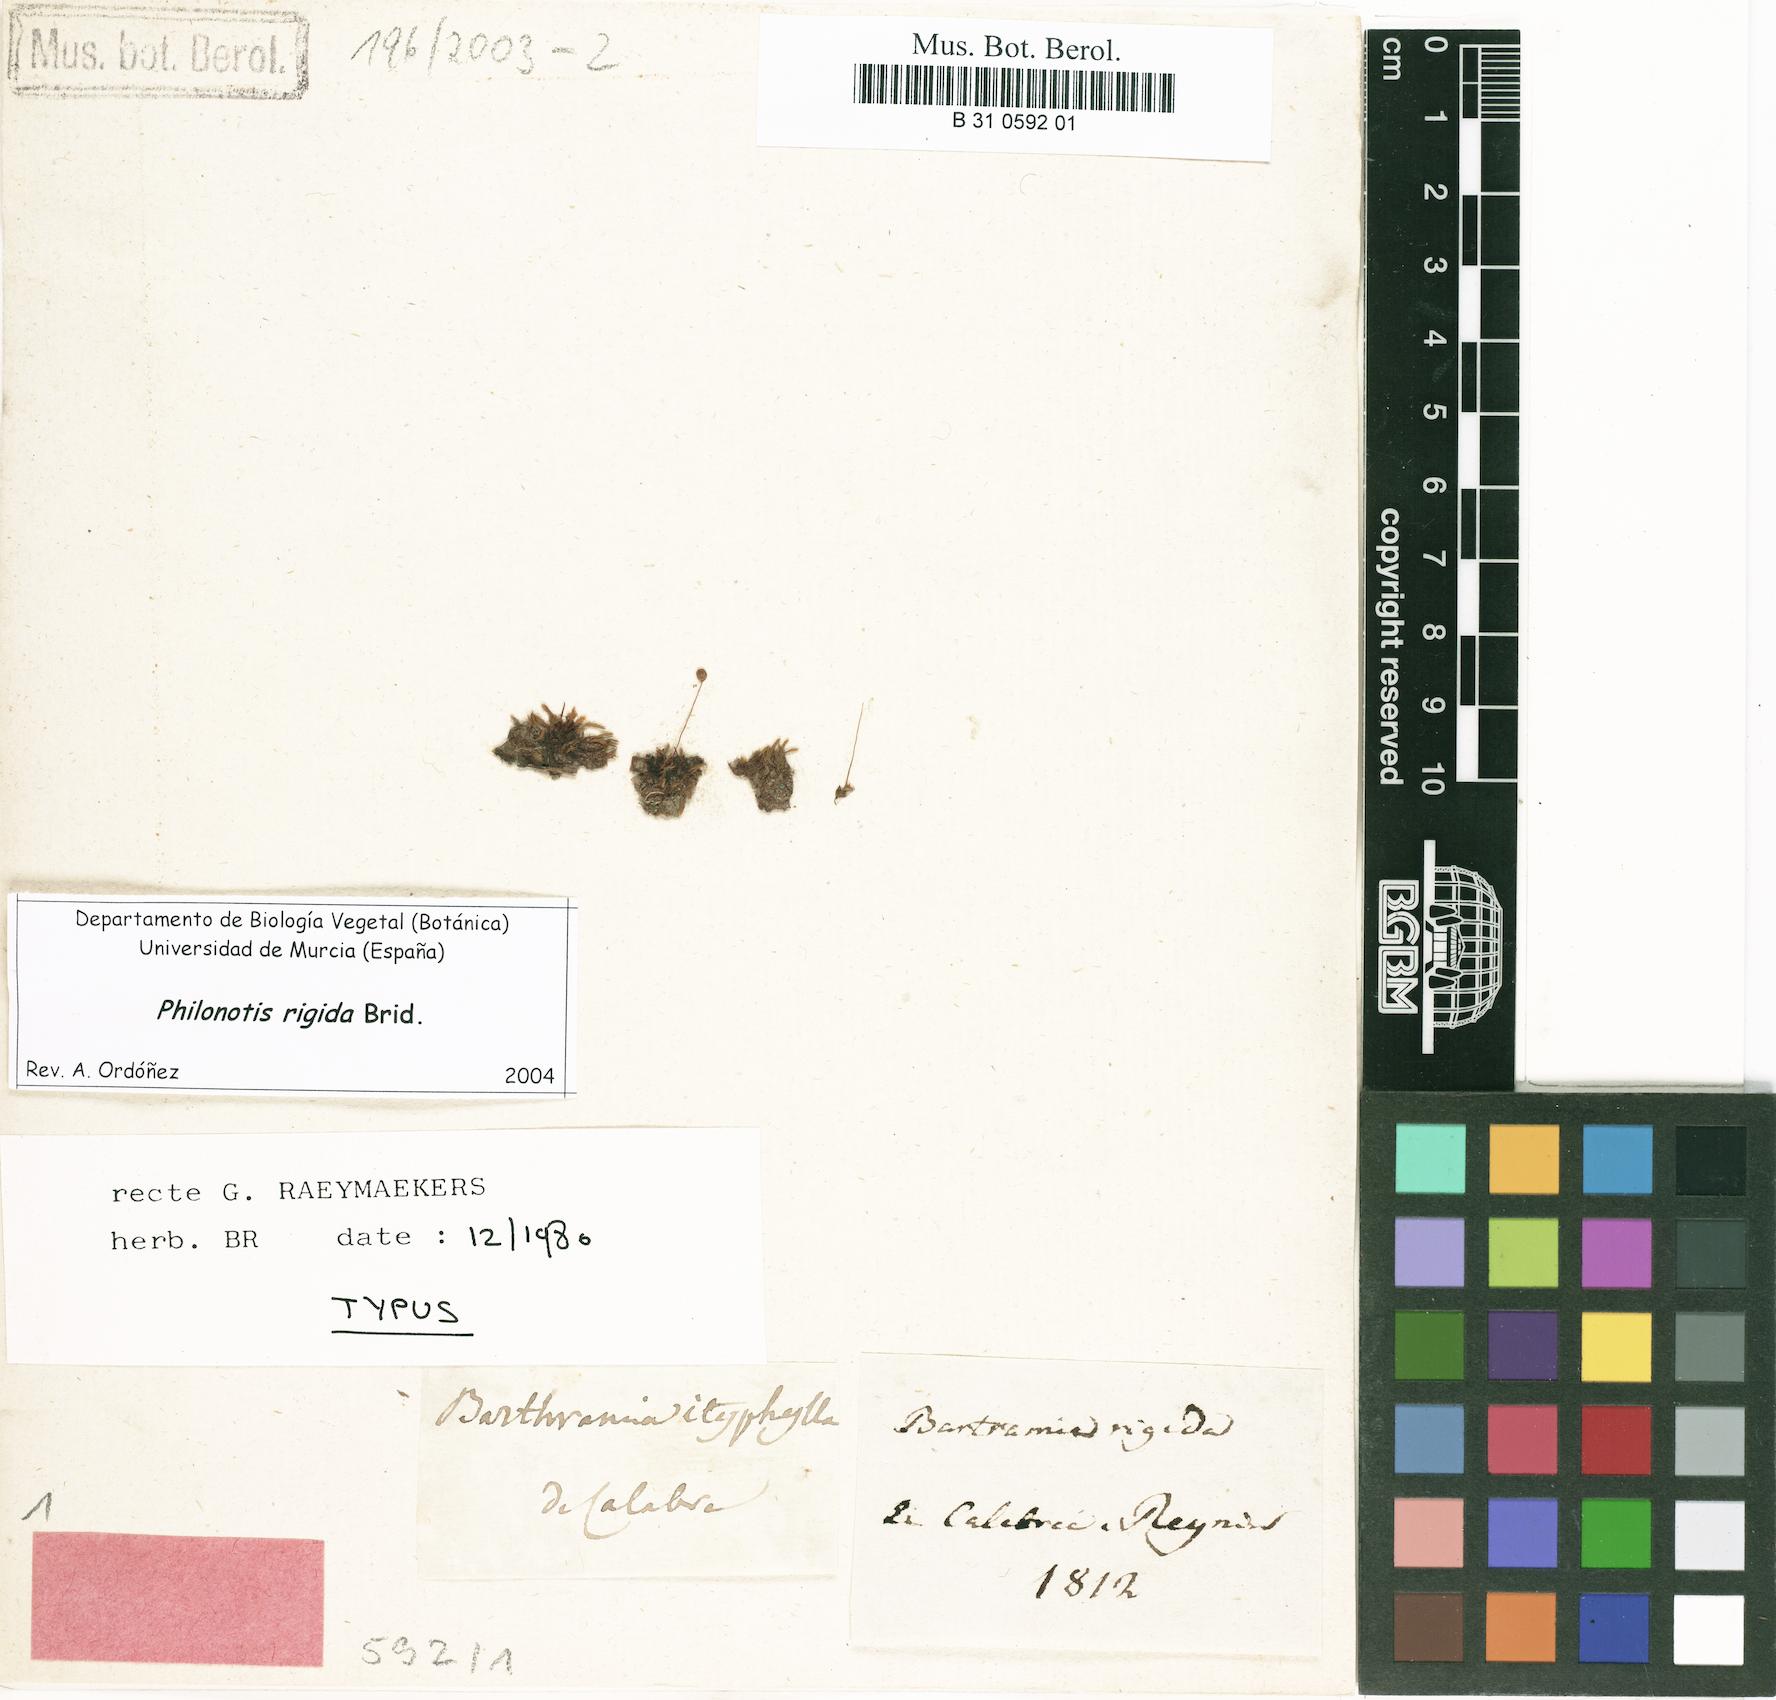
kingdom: Plantae
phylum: Bryophyta
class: Bryopsida
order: Bartramiales
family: Bartramiaceae
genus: Philonotis
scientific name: Philonotis rigida
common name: Rigid apple-moss
